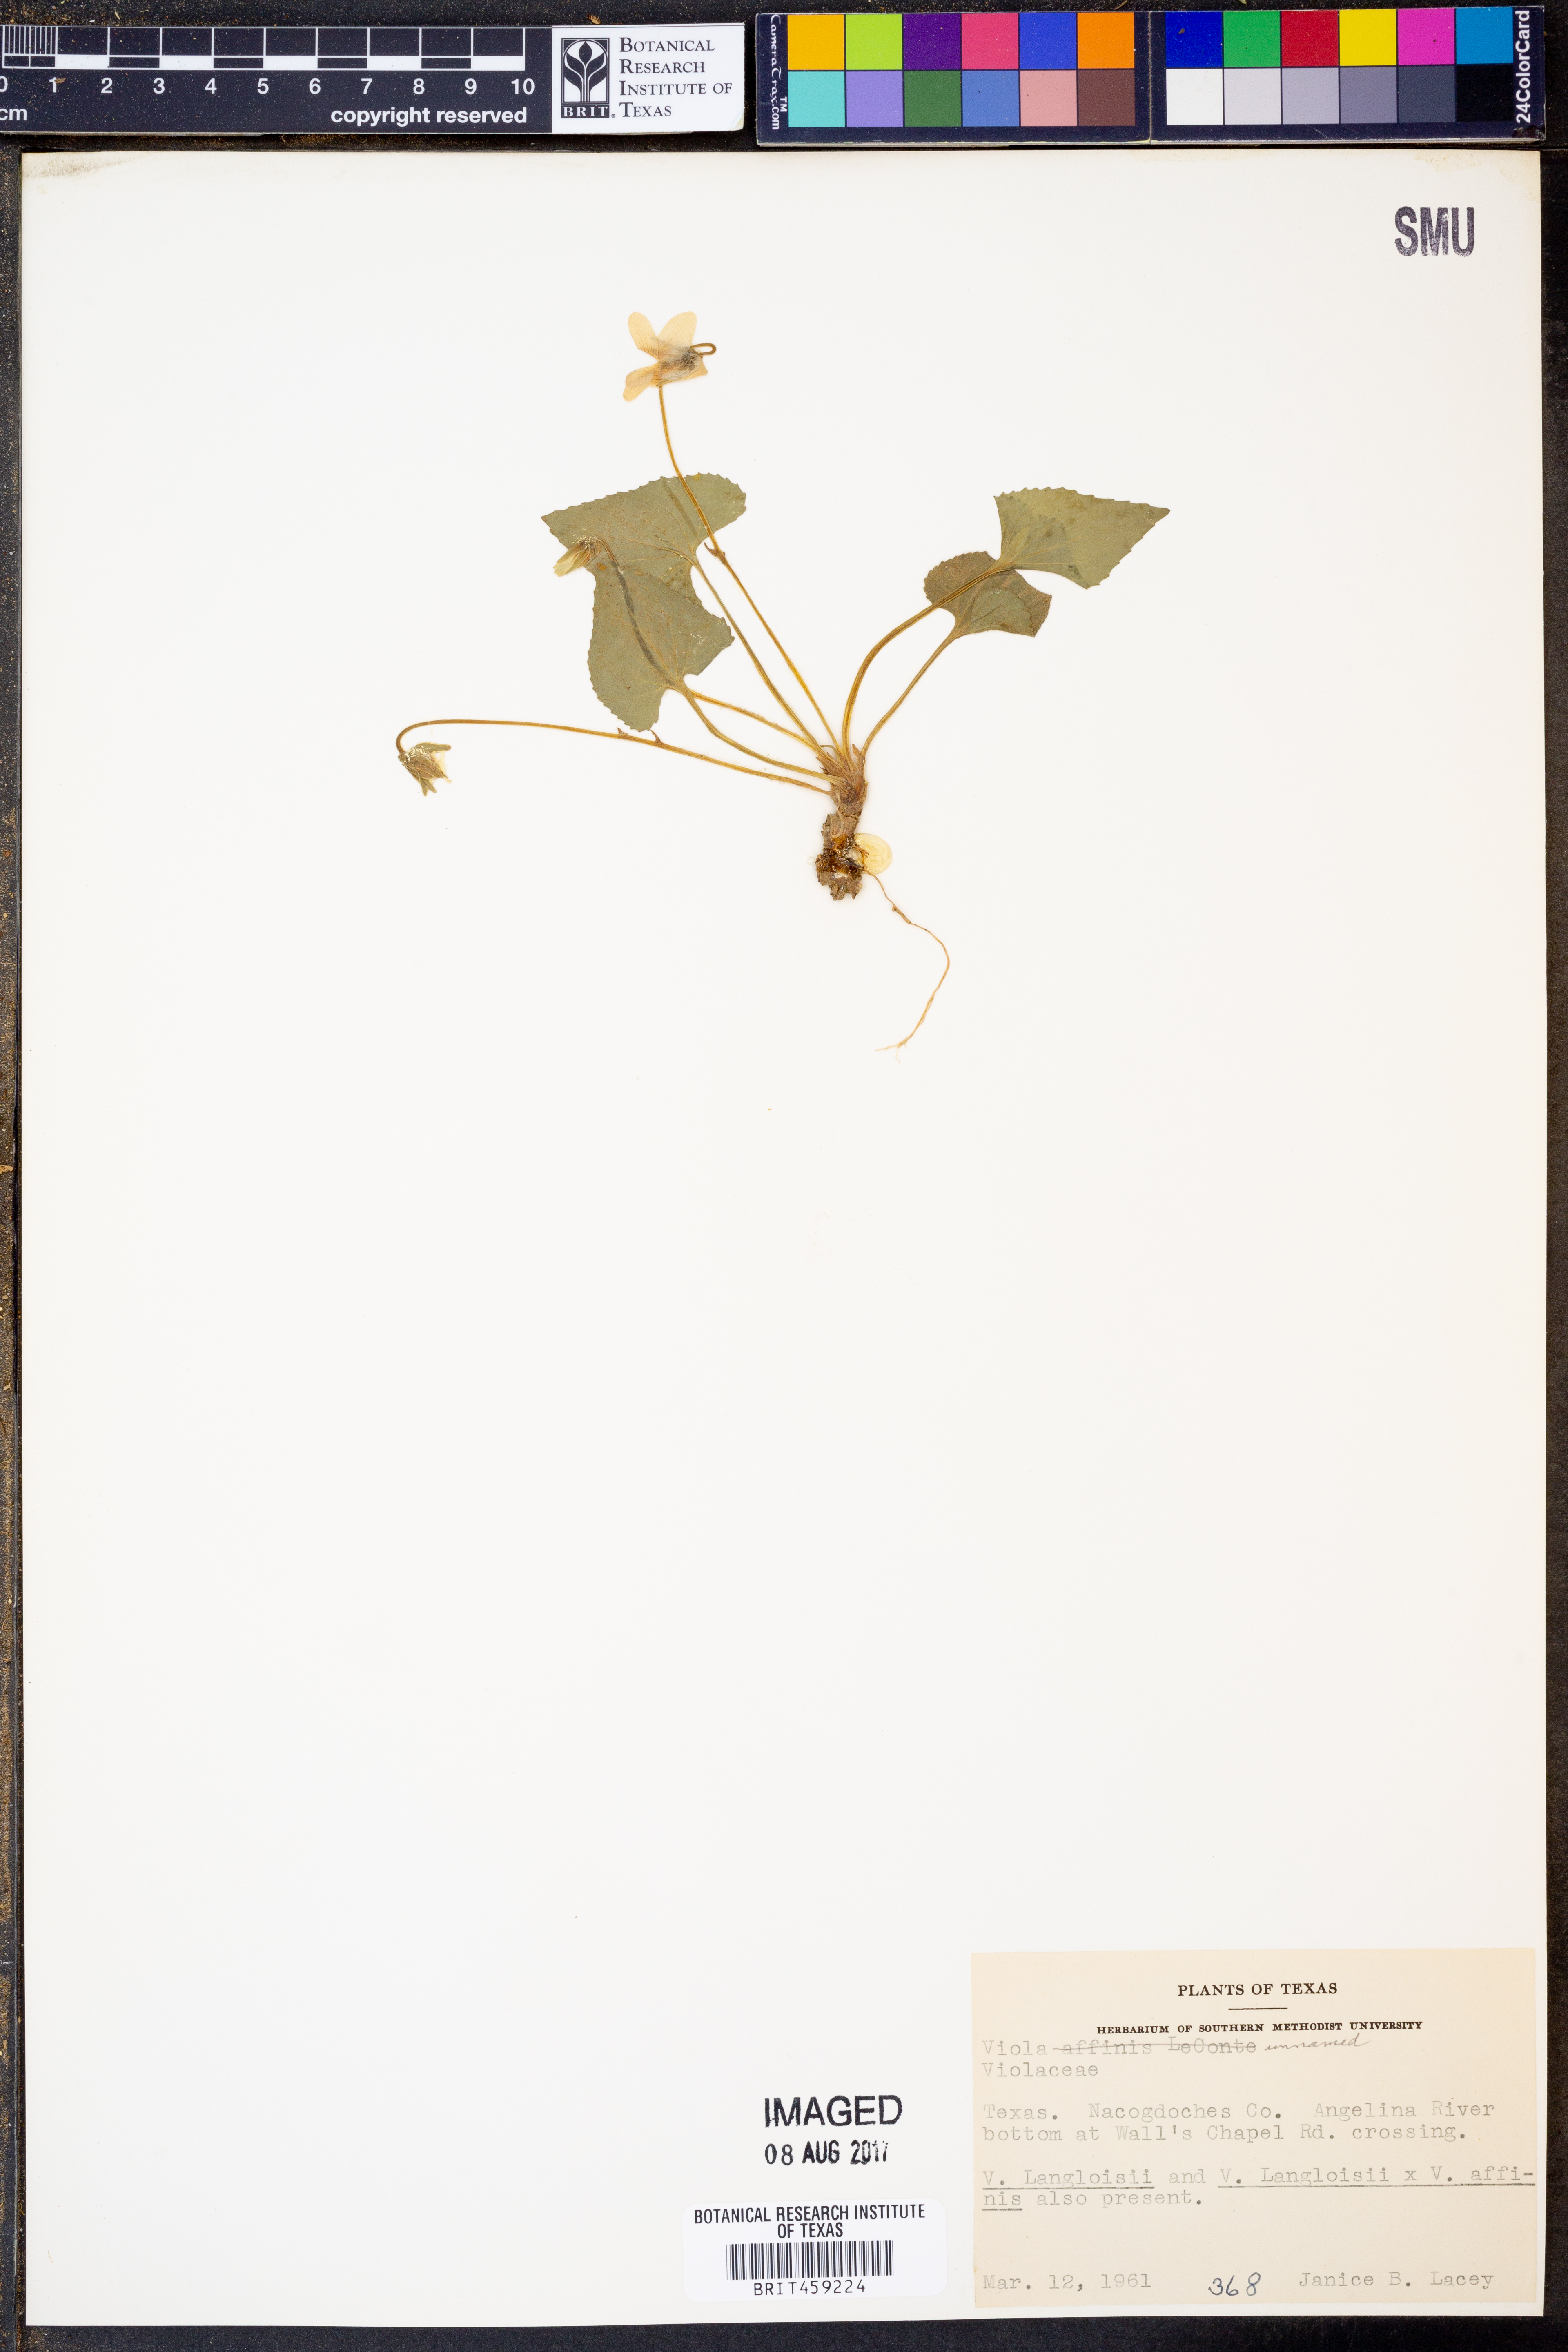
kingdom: Plantae
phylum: Tracheophyta
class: Magnoliopsida
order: Malpighiales
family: Violaceae
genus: Viola
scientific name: Viola
